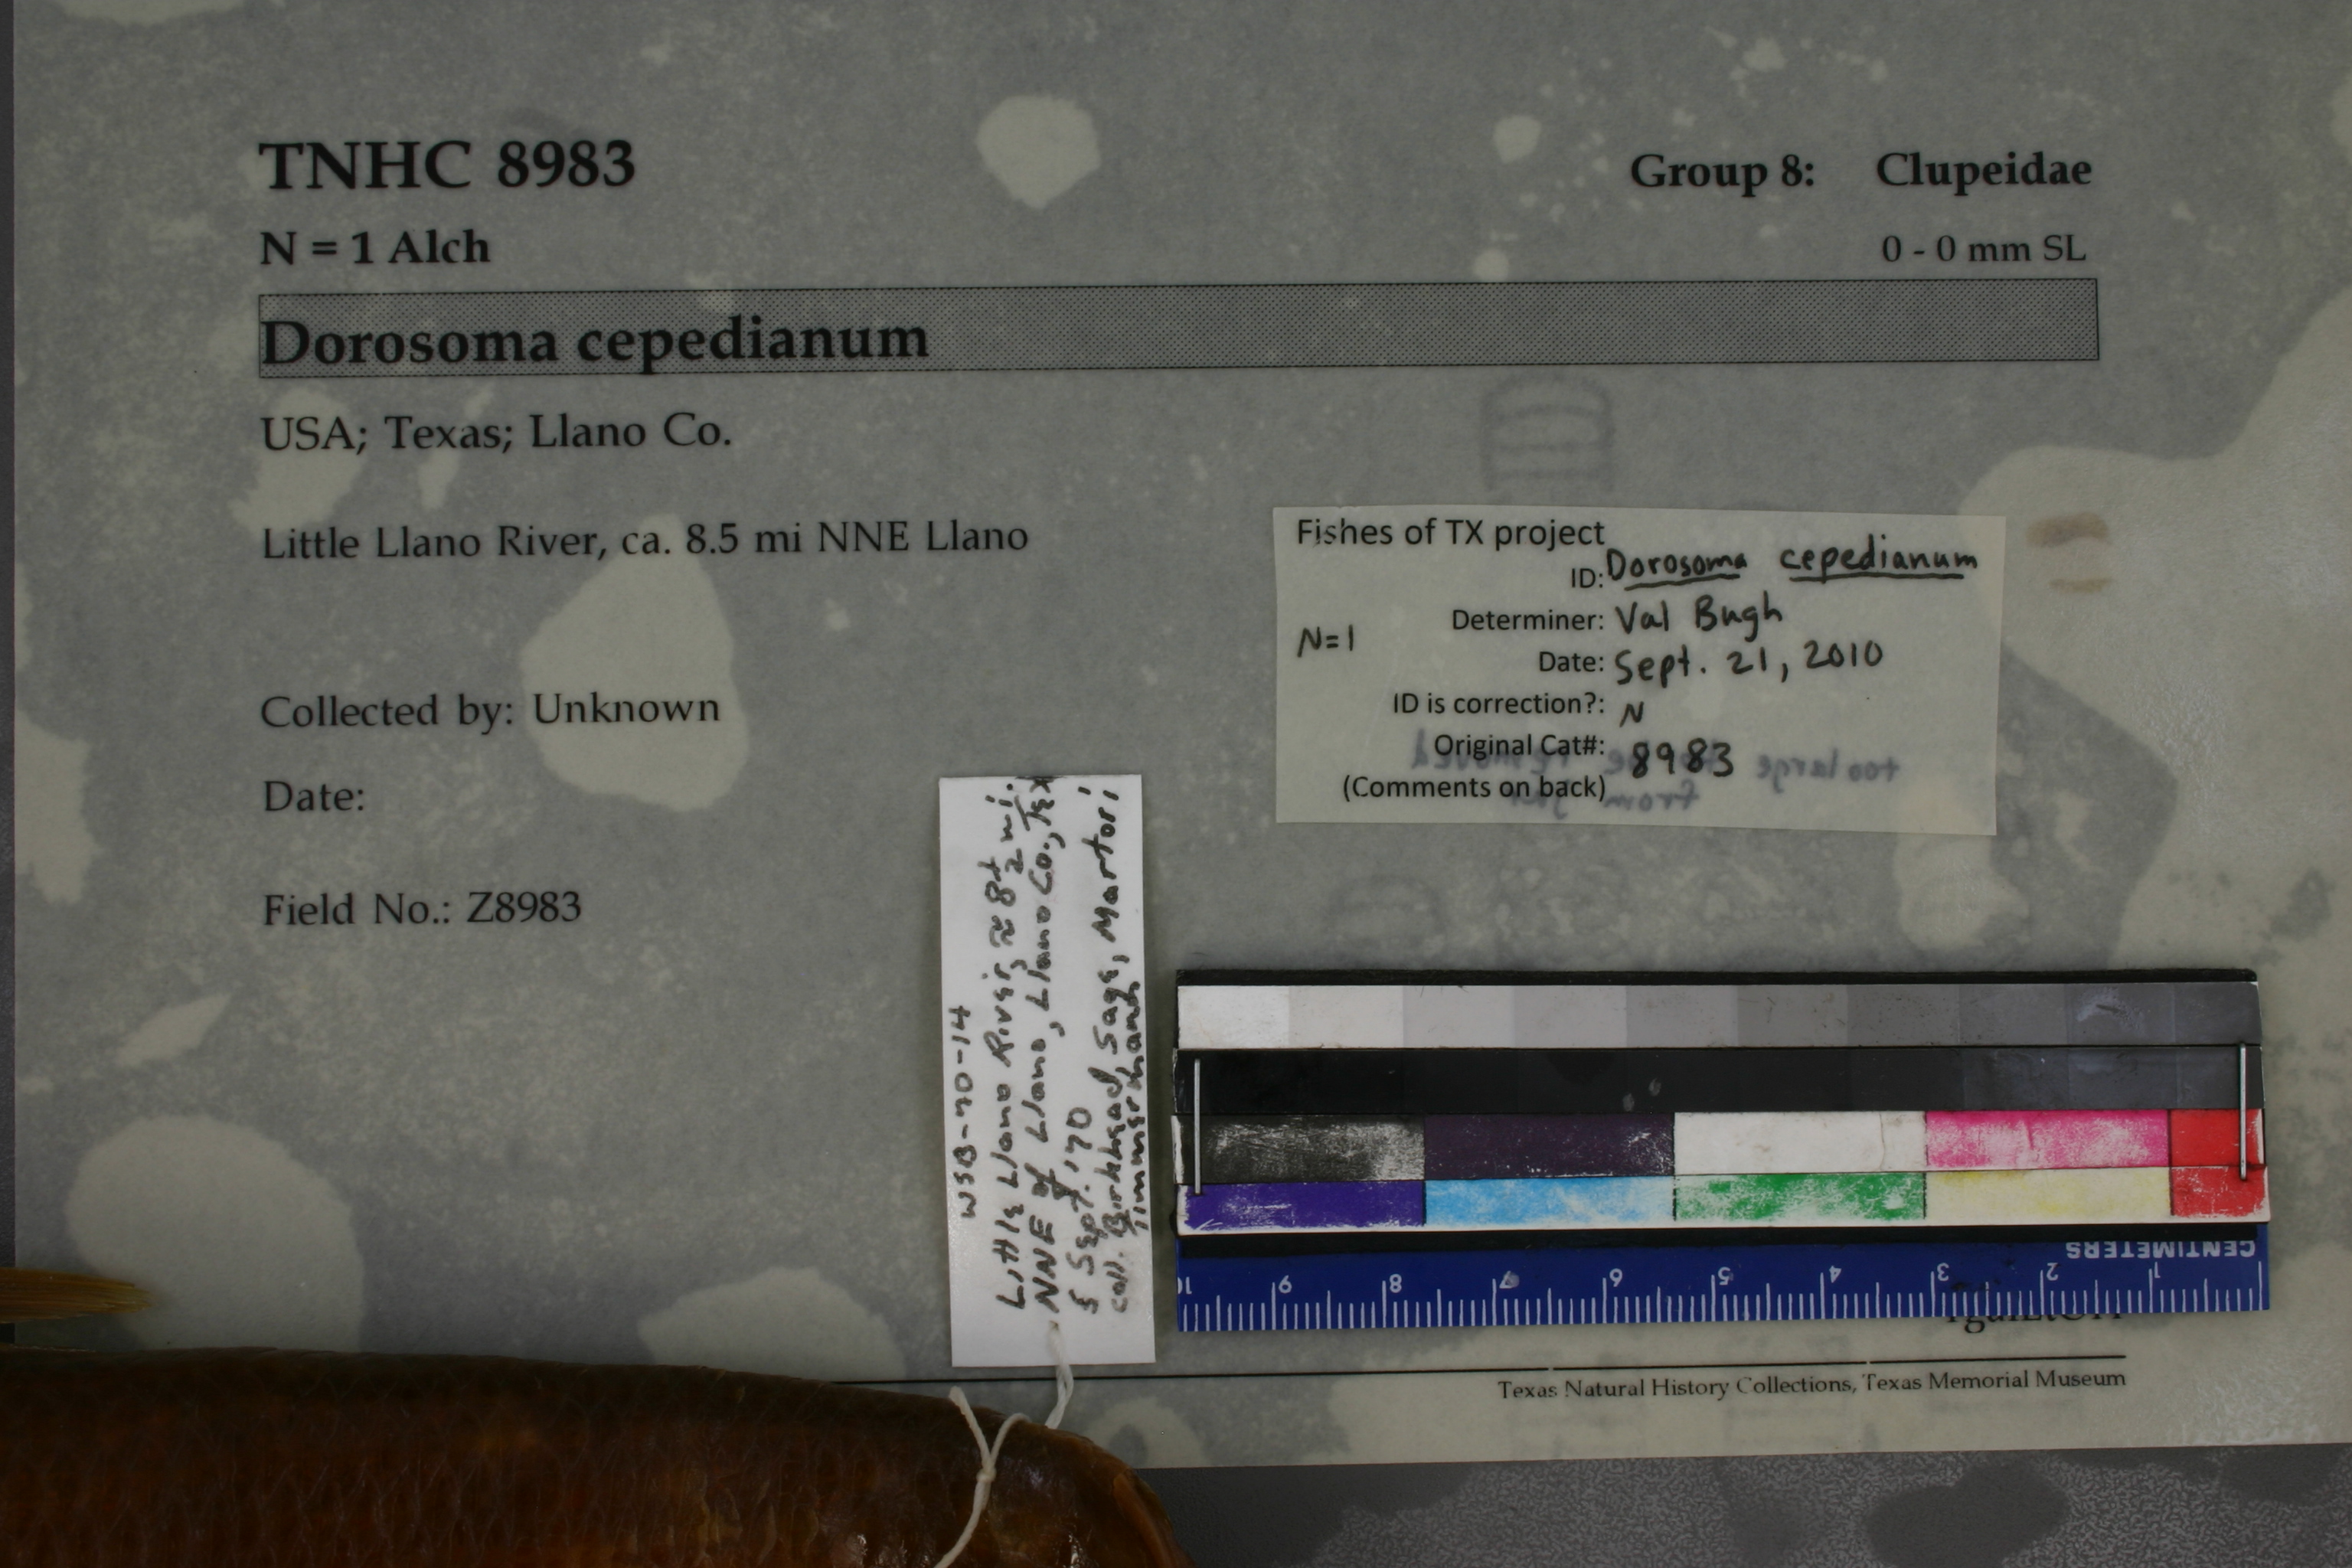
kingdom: Animalia
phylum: Chordata
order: Clupeiformes
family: Clupeidae
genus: Dorosoma
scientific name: Dorosoma cepedianum
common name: Gizzard shad
